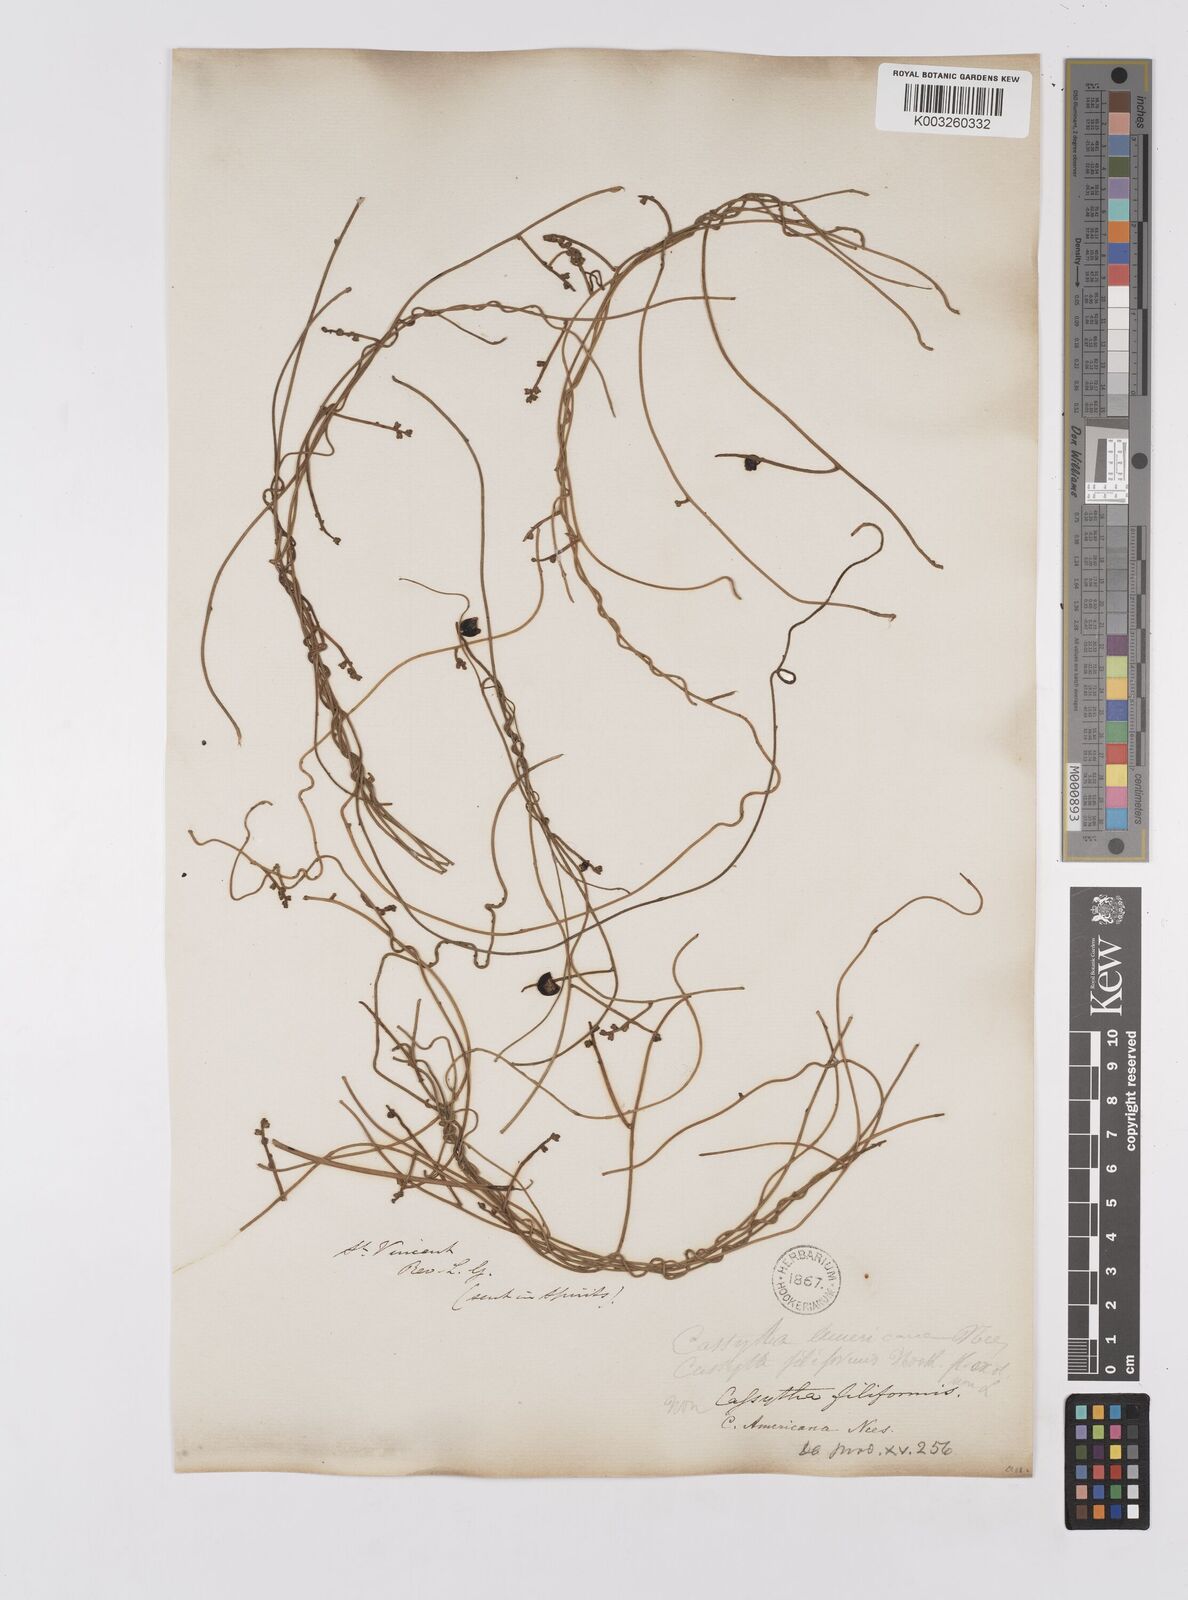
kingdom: Plantae
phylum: Tracheophyta
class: Magnoliopsida
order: Laurales
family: Lauraceae
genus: Cassytha
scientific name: Cassytha filiformis
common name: Dodder-laurel
